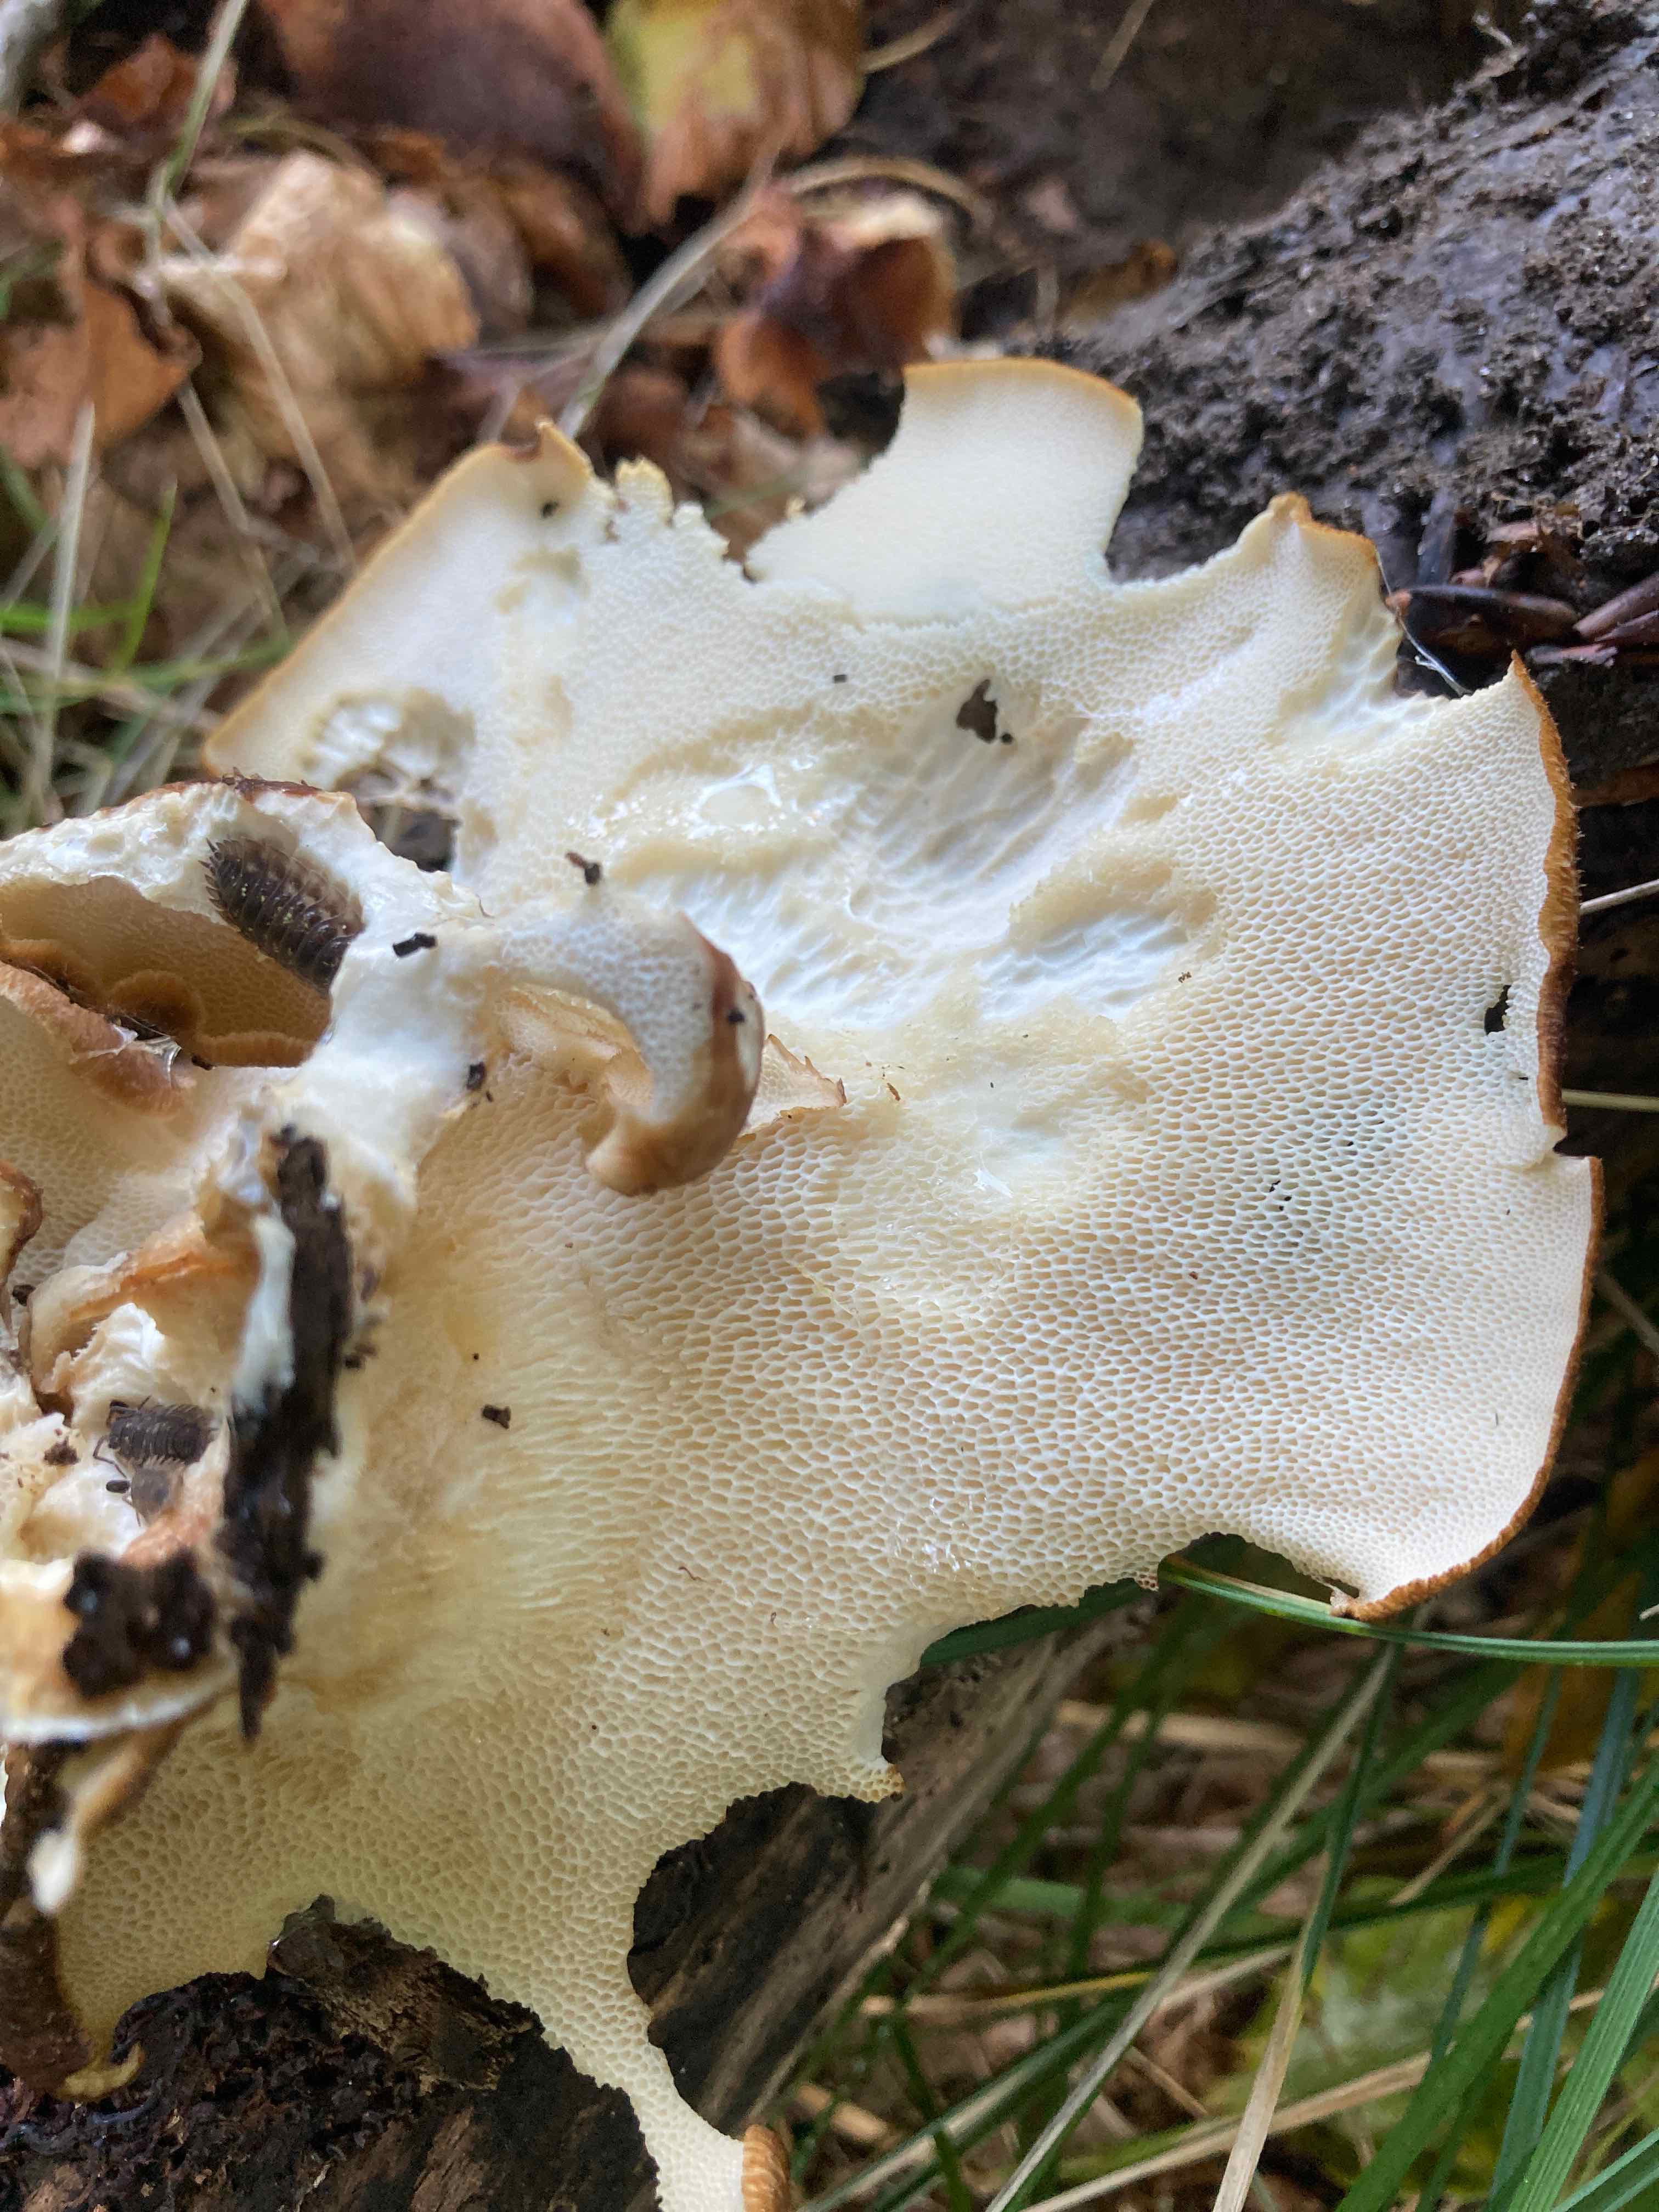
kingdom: Fungi
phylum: Basidiomycota
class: Agaricomycetes
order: Polyporales
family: Polyporaceae
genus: Polyporus
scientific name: Polyporus tuberaster
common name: knoldet stilkporesvamp
